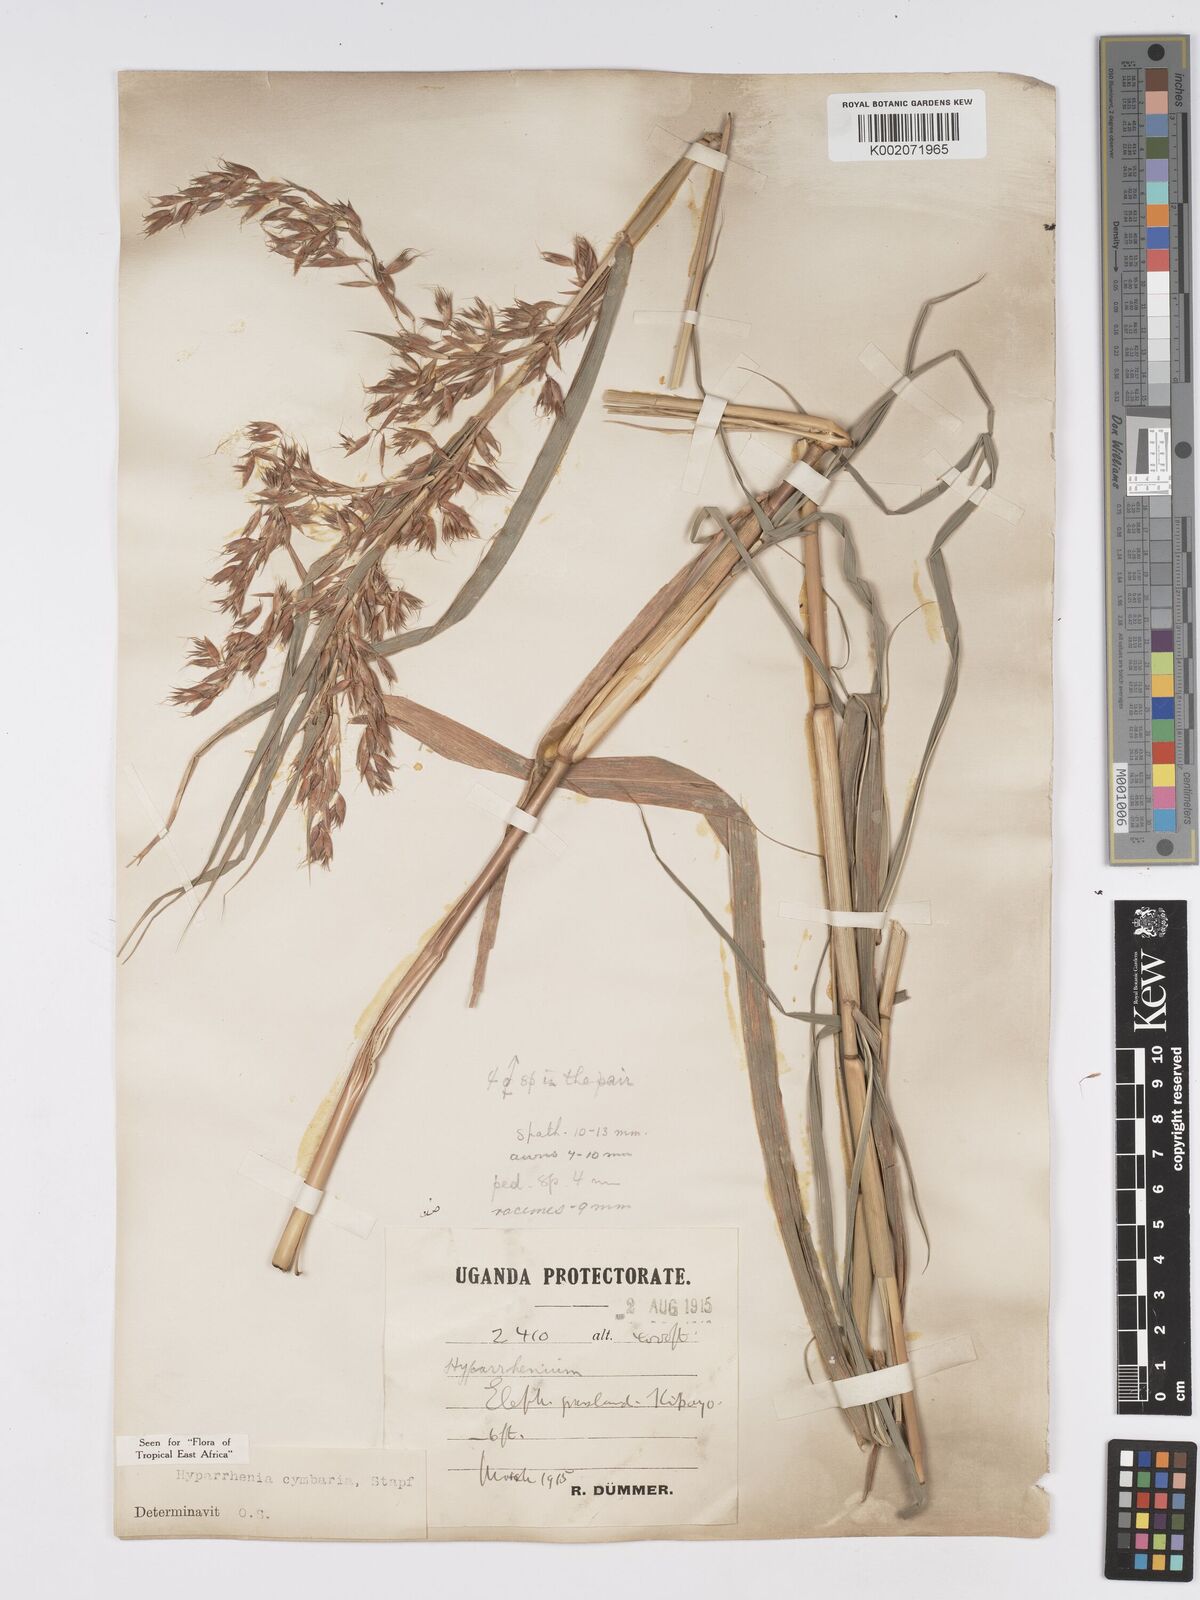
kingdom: Plantae
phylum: Tracheophyta
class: Liliopsida
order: Poales
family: Poaceae
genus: Hyparrhenia
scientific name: Hyparrhenia cymbaria
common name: Boat thatching grass
